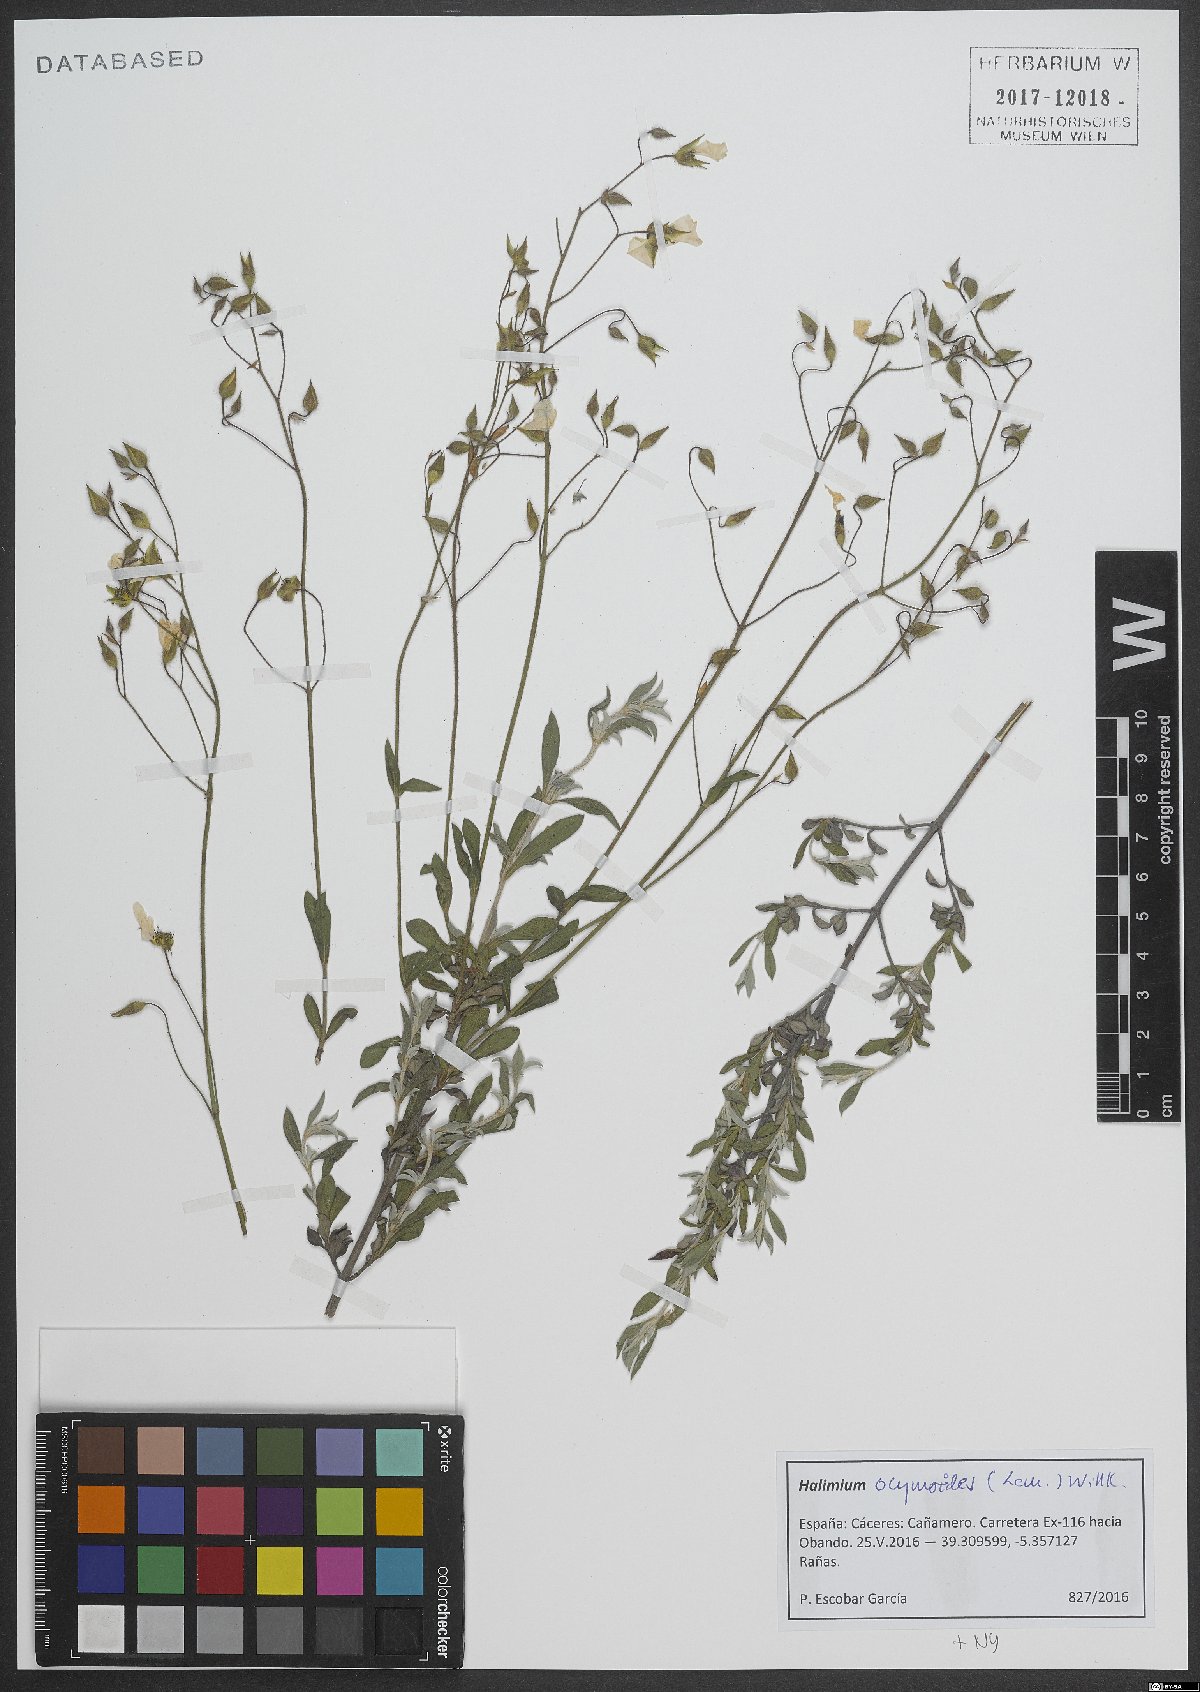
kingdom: Plantae
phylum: Tracheophyta
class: Magnoliopsida
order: Malvales
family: Cistaceae
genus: Halimium
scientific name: Halimium ocymoides
